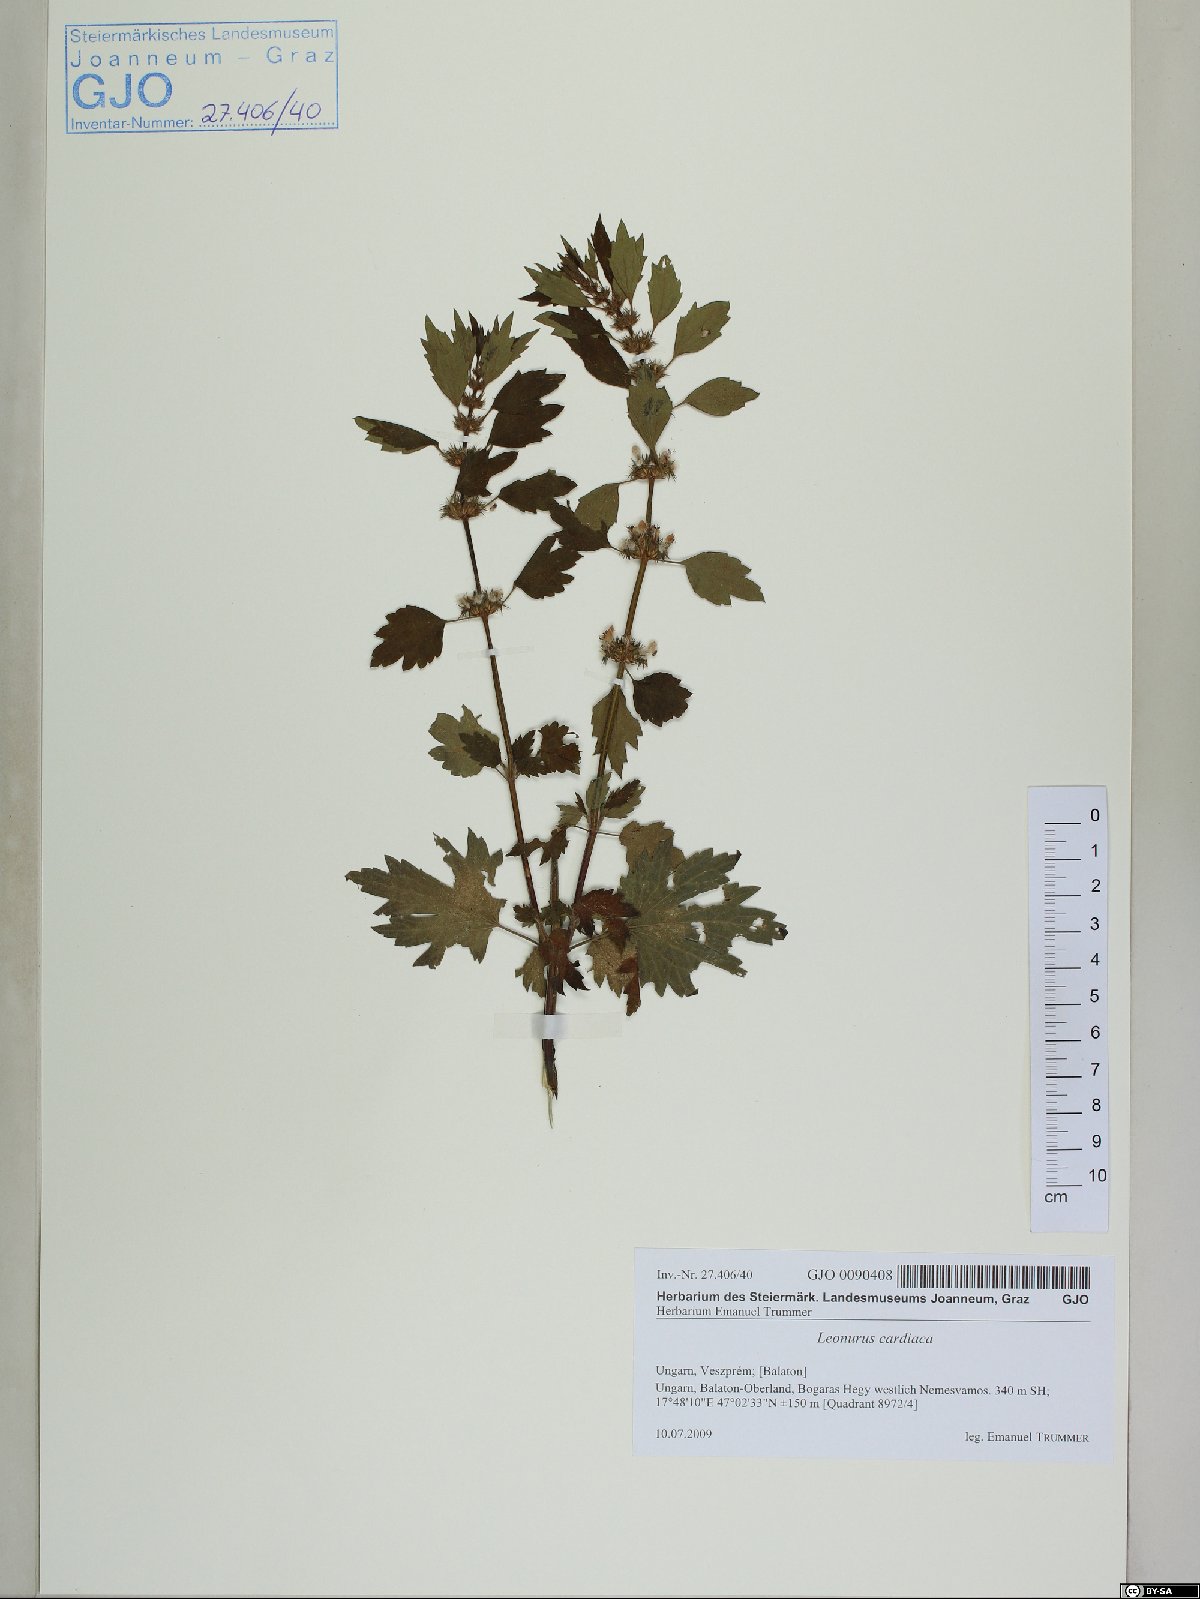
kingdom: Plantae
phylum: Tracheophyta
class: Magnoliopsida
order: Lamiales
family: Lamiaceae
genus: Leonurus
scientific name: Leonurus cardiaca
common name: Motherwort
